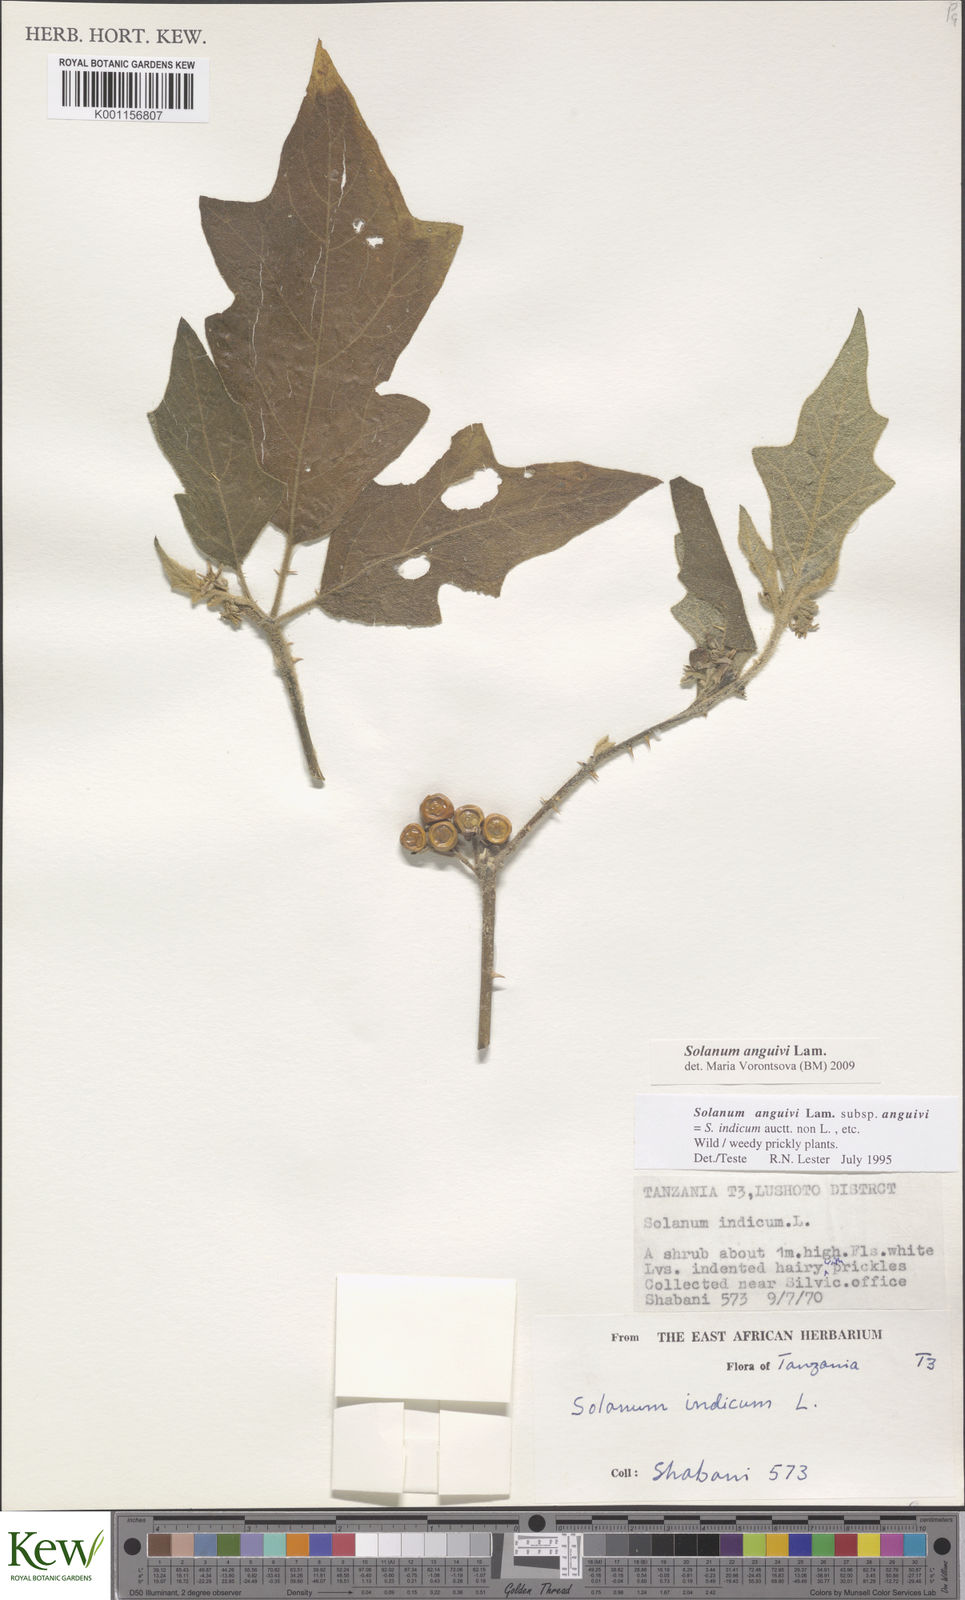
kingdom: Plantae
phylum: Tracheophyta
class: Magnoliopsida
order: Solanales
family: Solanaceae
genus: Solanum
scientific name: Solanum anguivi
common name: Forest bitterberry
